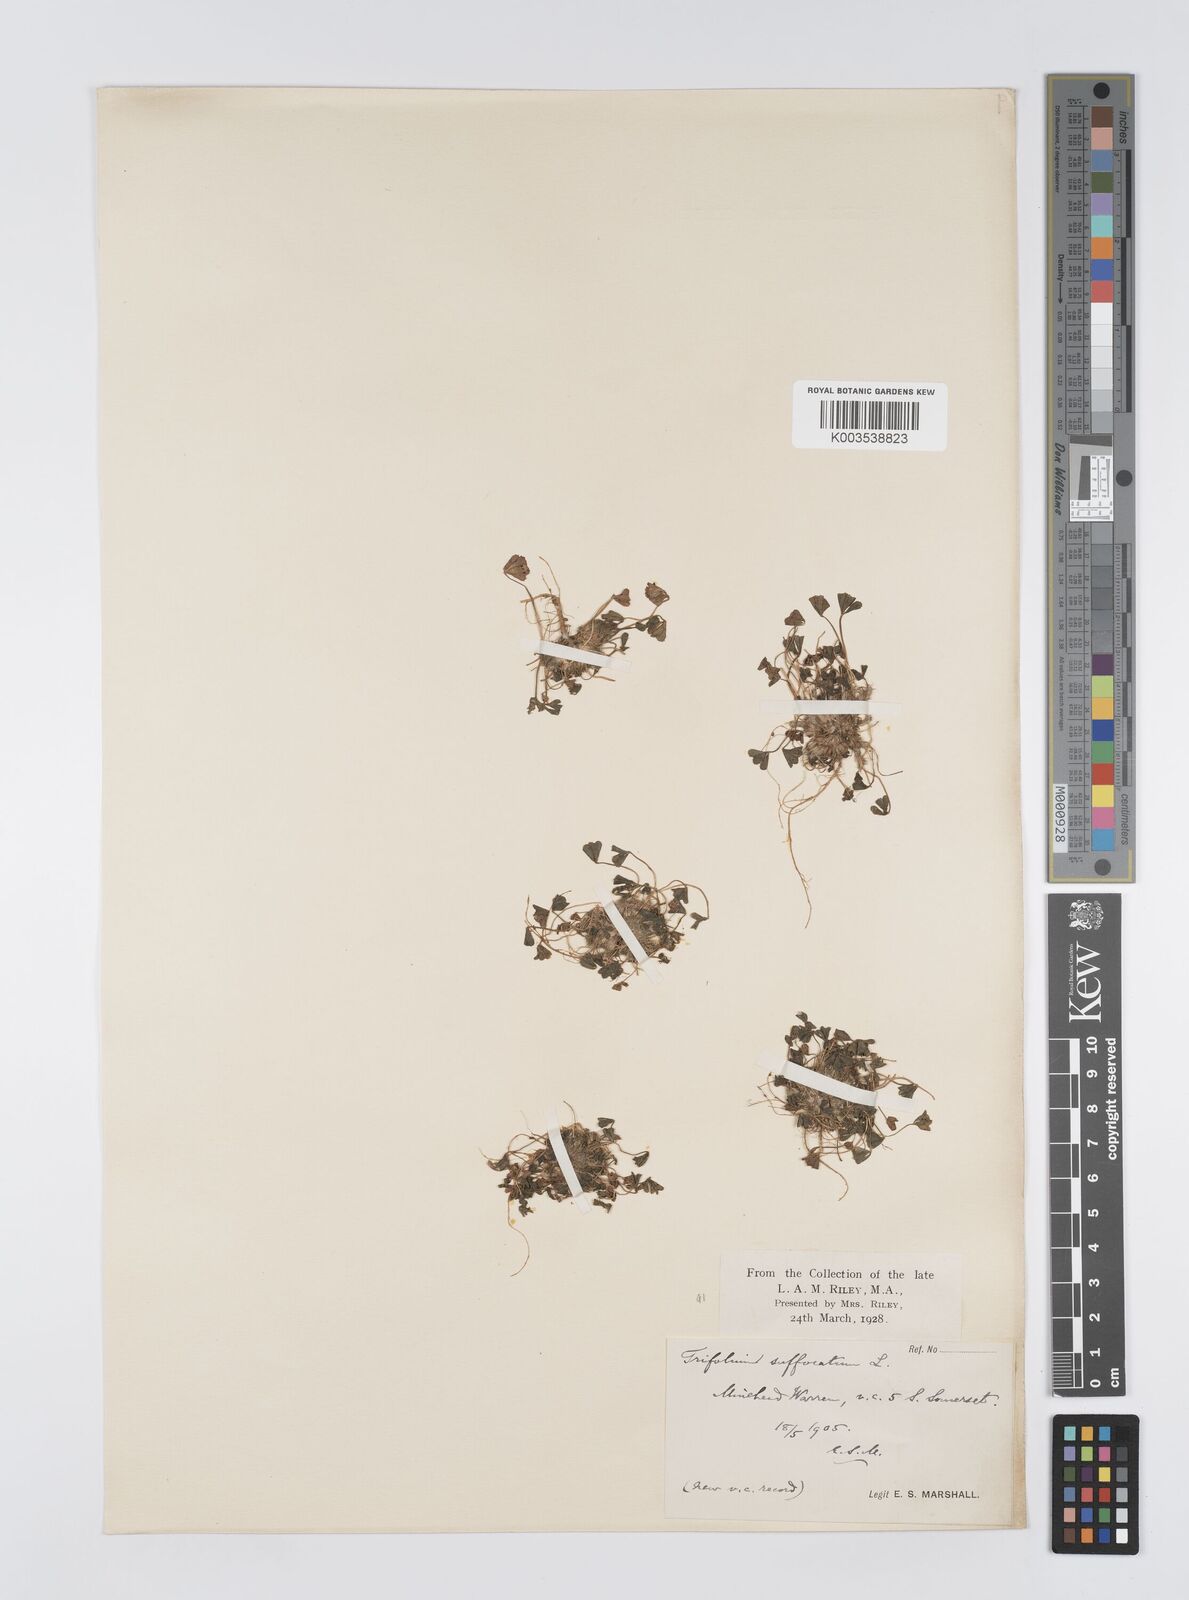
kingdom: Plantae
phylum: Tracheophyta
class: Magnoliopsida
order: Fabales
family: Fabaceae
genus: Trifolium
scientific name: Trifolium suffocatum
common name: Suffocated clover
